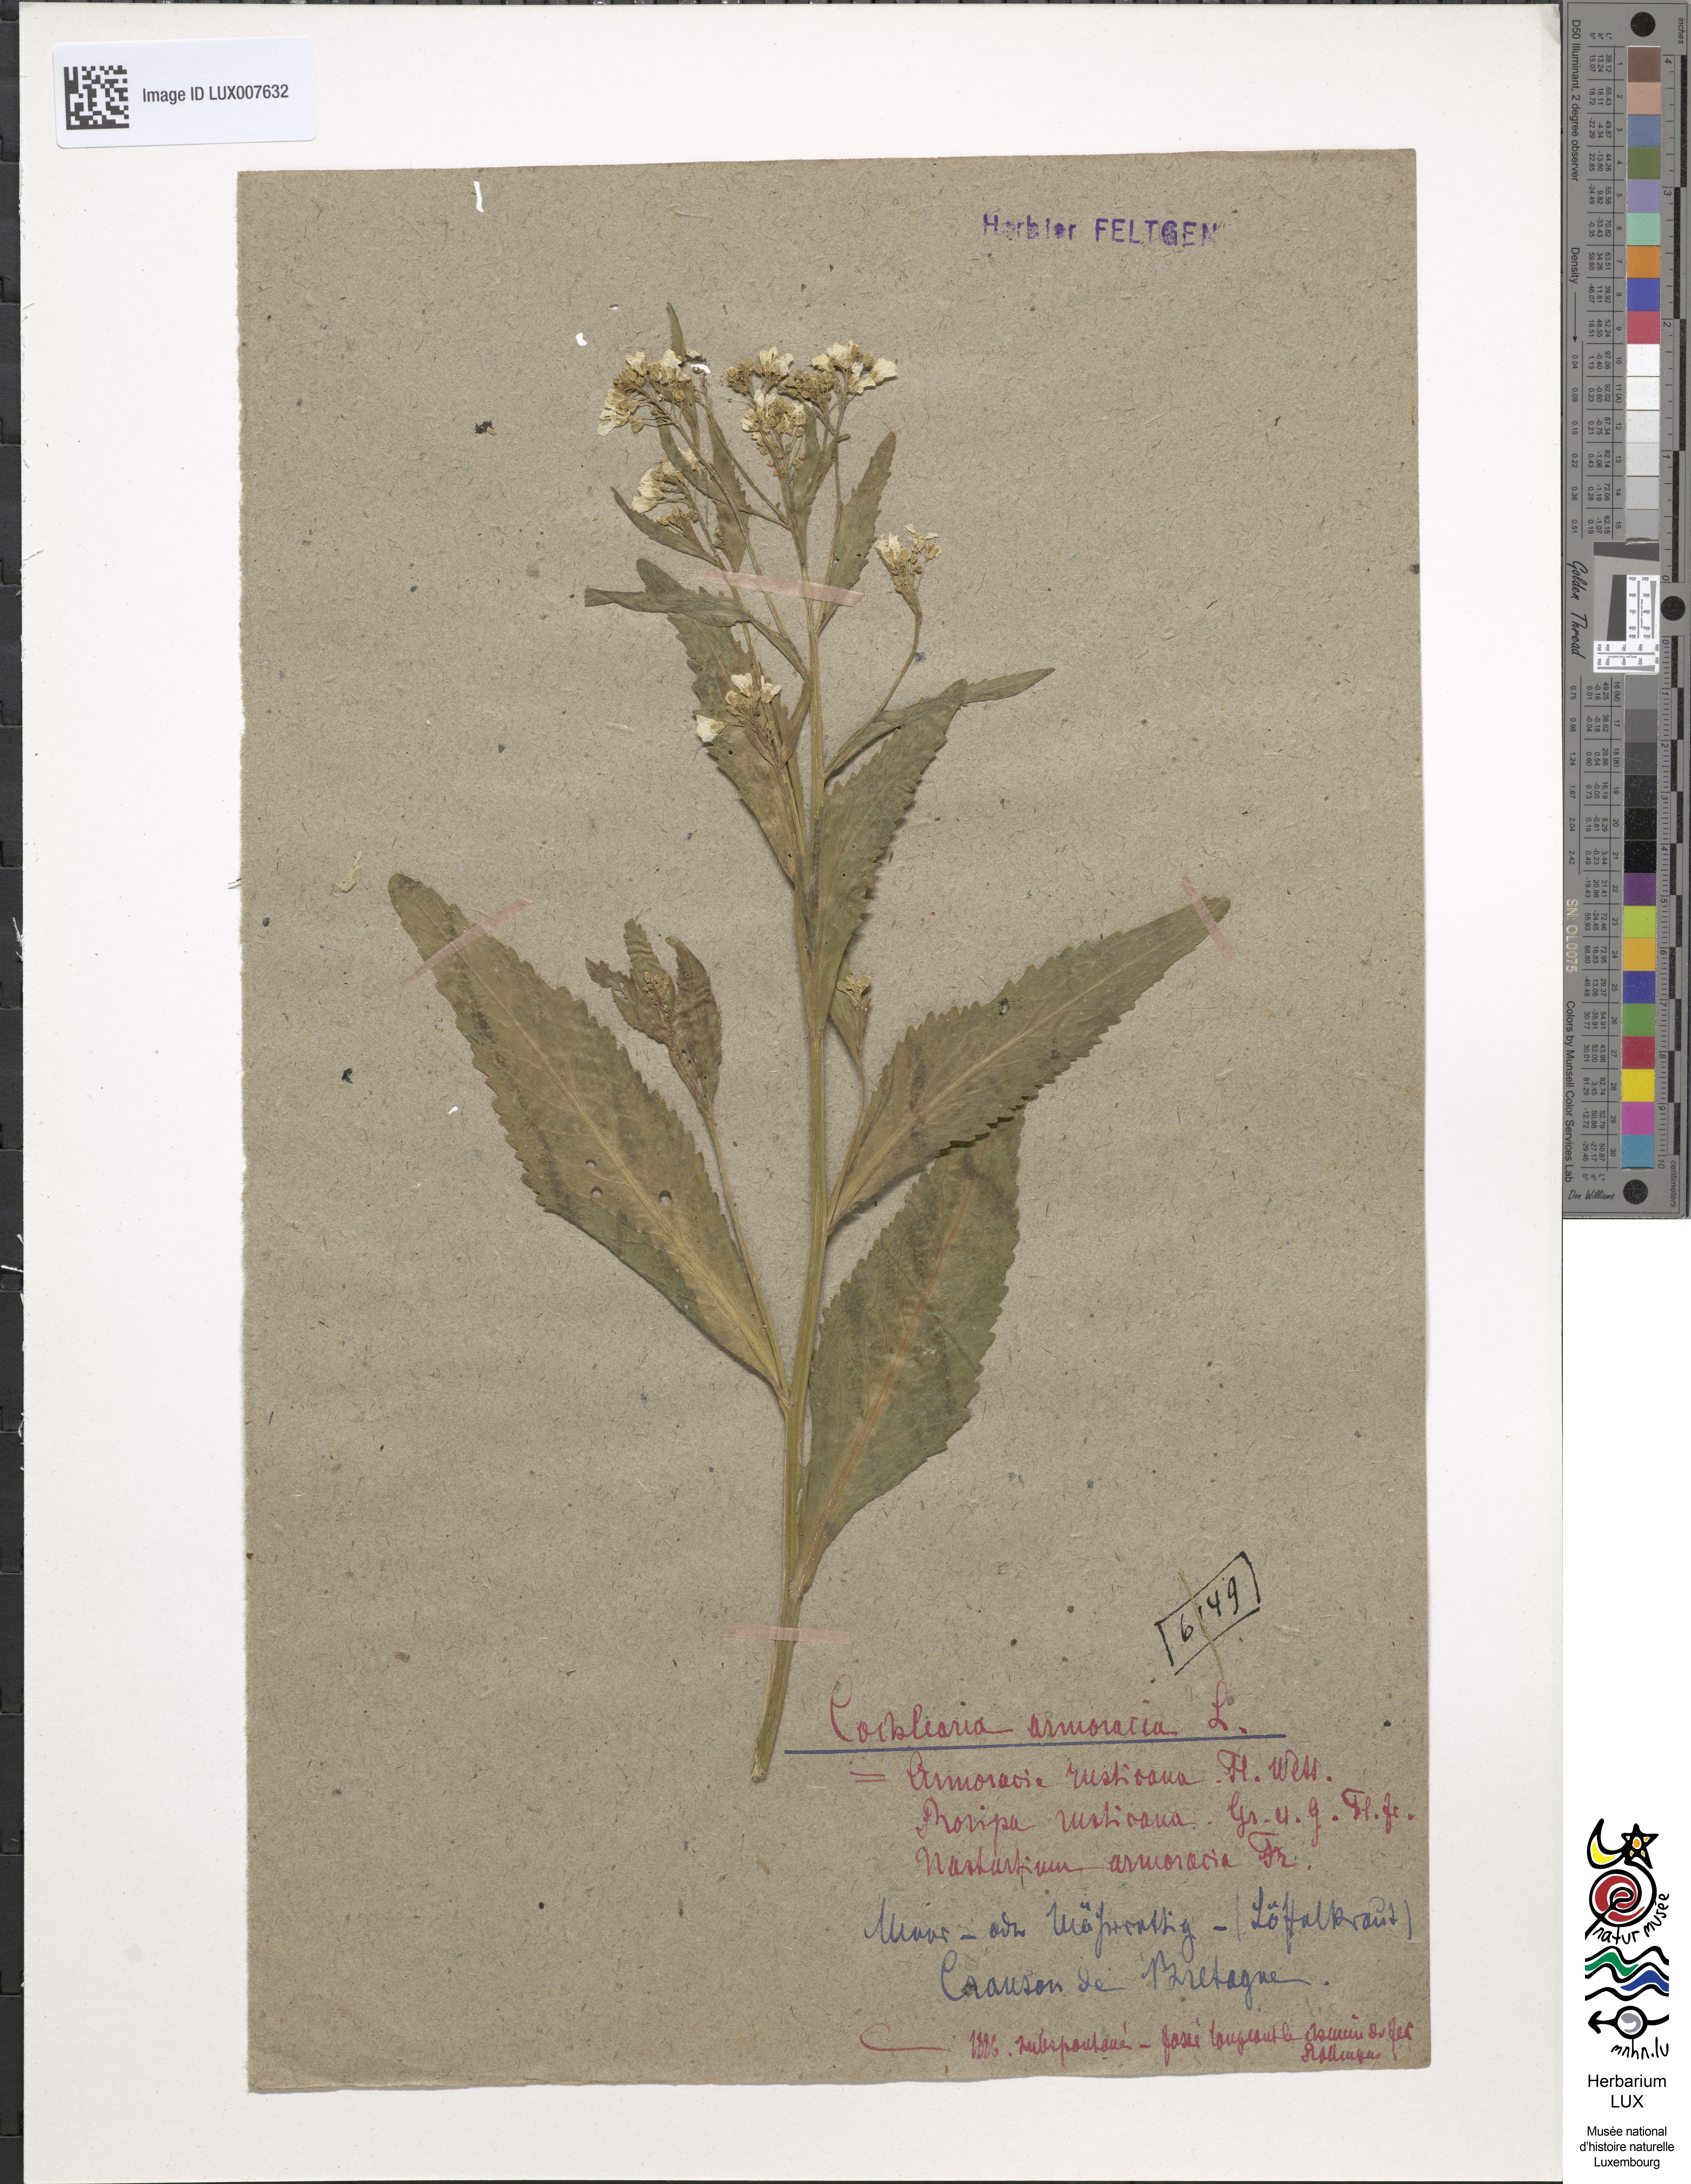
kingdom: Plantae
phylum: Tracheophyta
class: Magnoliopsida
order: Brassicales
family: Brassicaceae
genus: Armoracia
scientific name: Armoracia rusticana
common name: Horseradish
